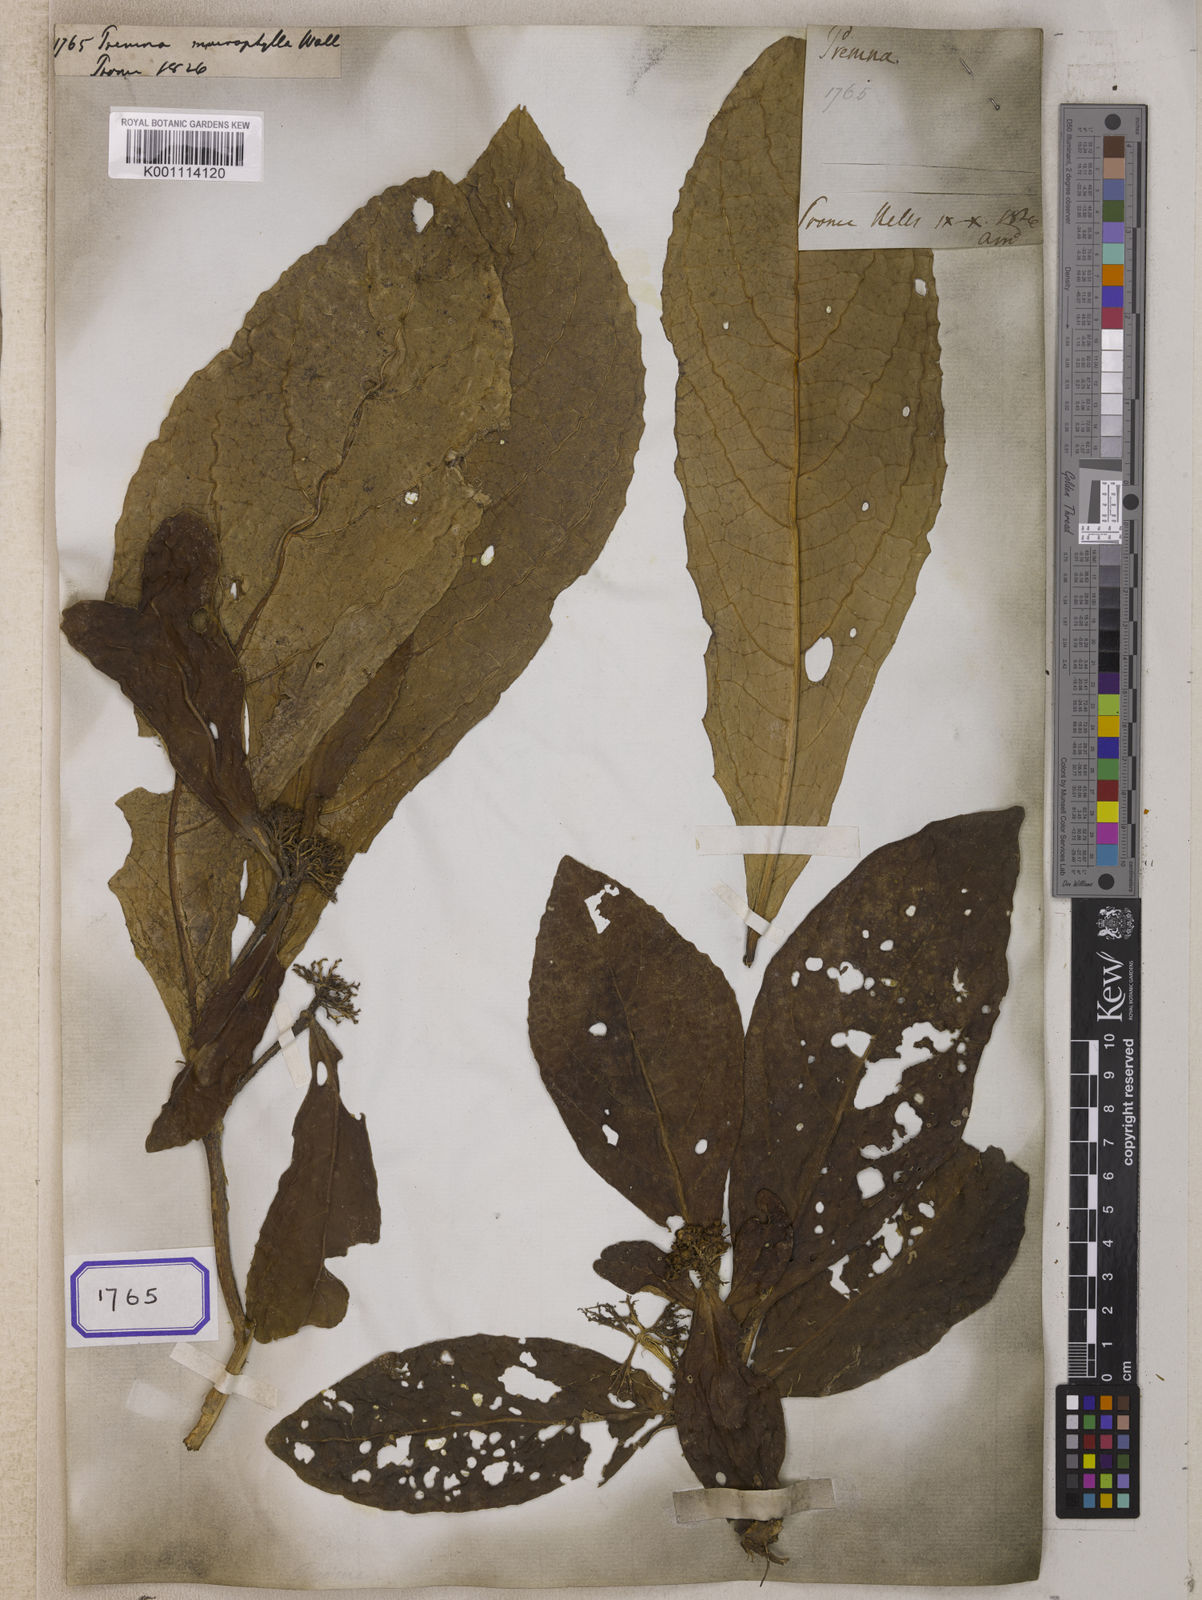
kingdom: Plantae
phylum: Tracheophyta
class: Magnoliopsida
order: Lamiales
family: Lamiaceae
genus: Premna
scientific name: Premna
